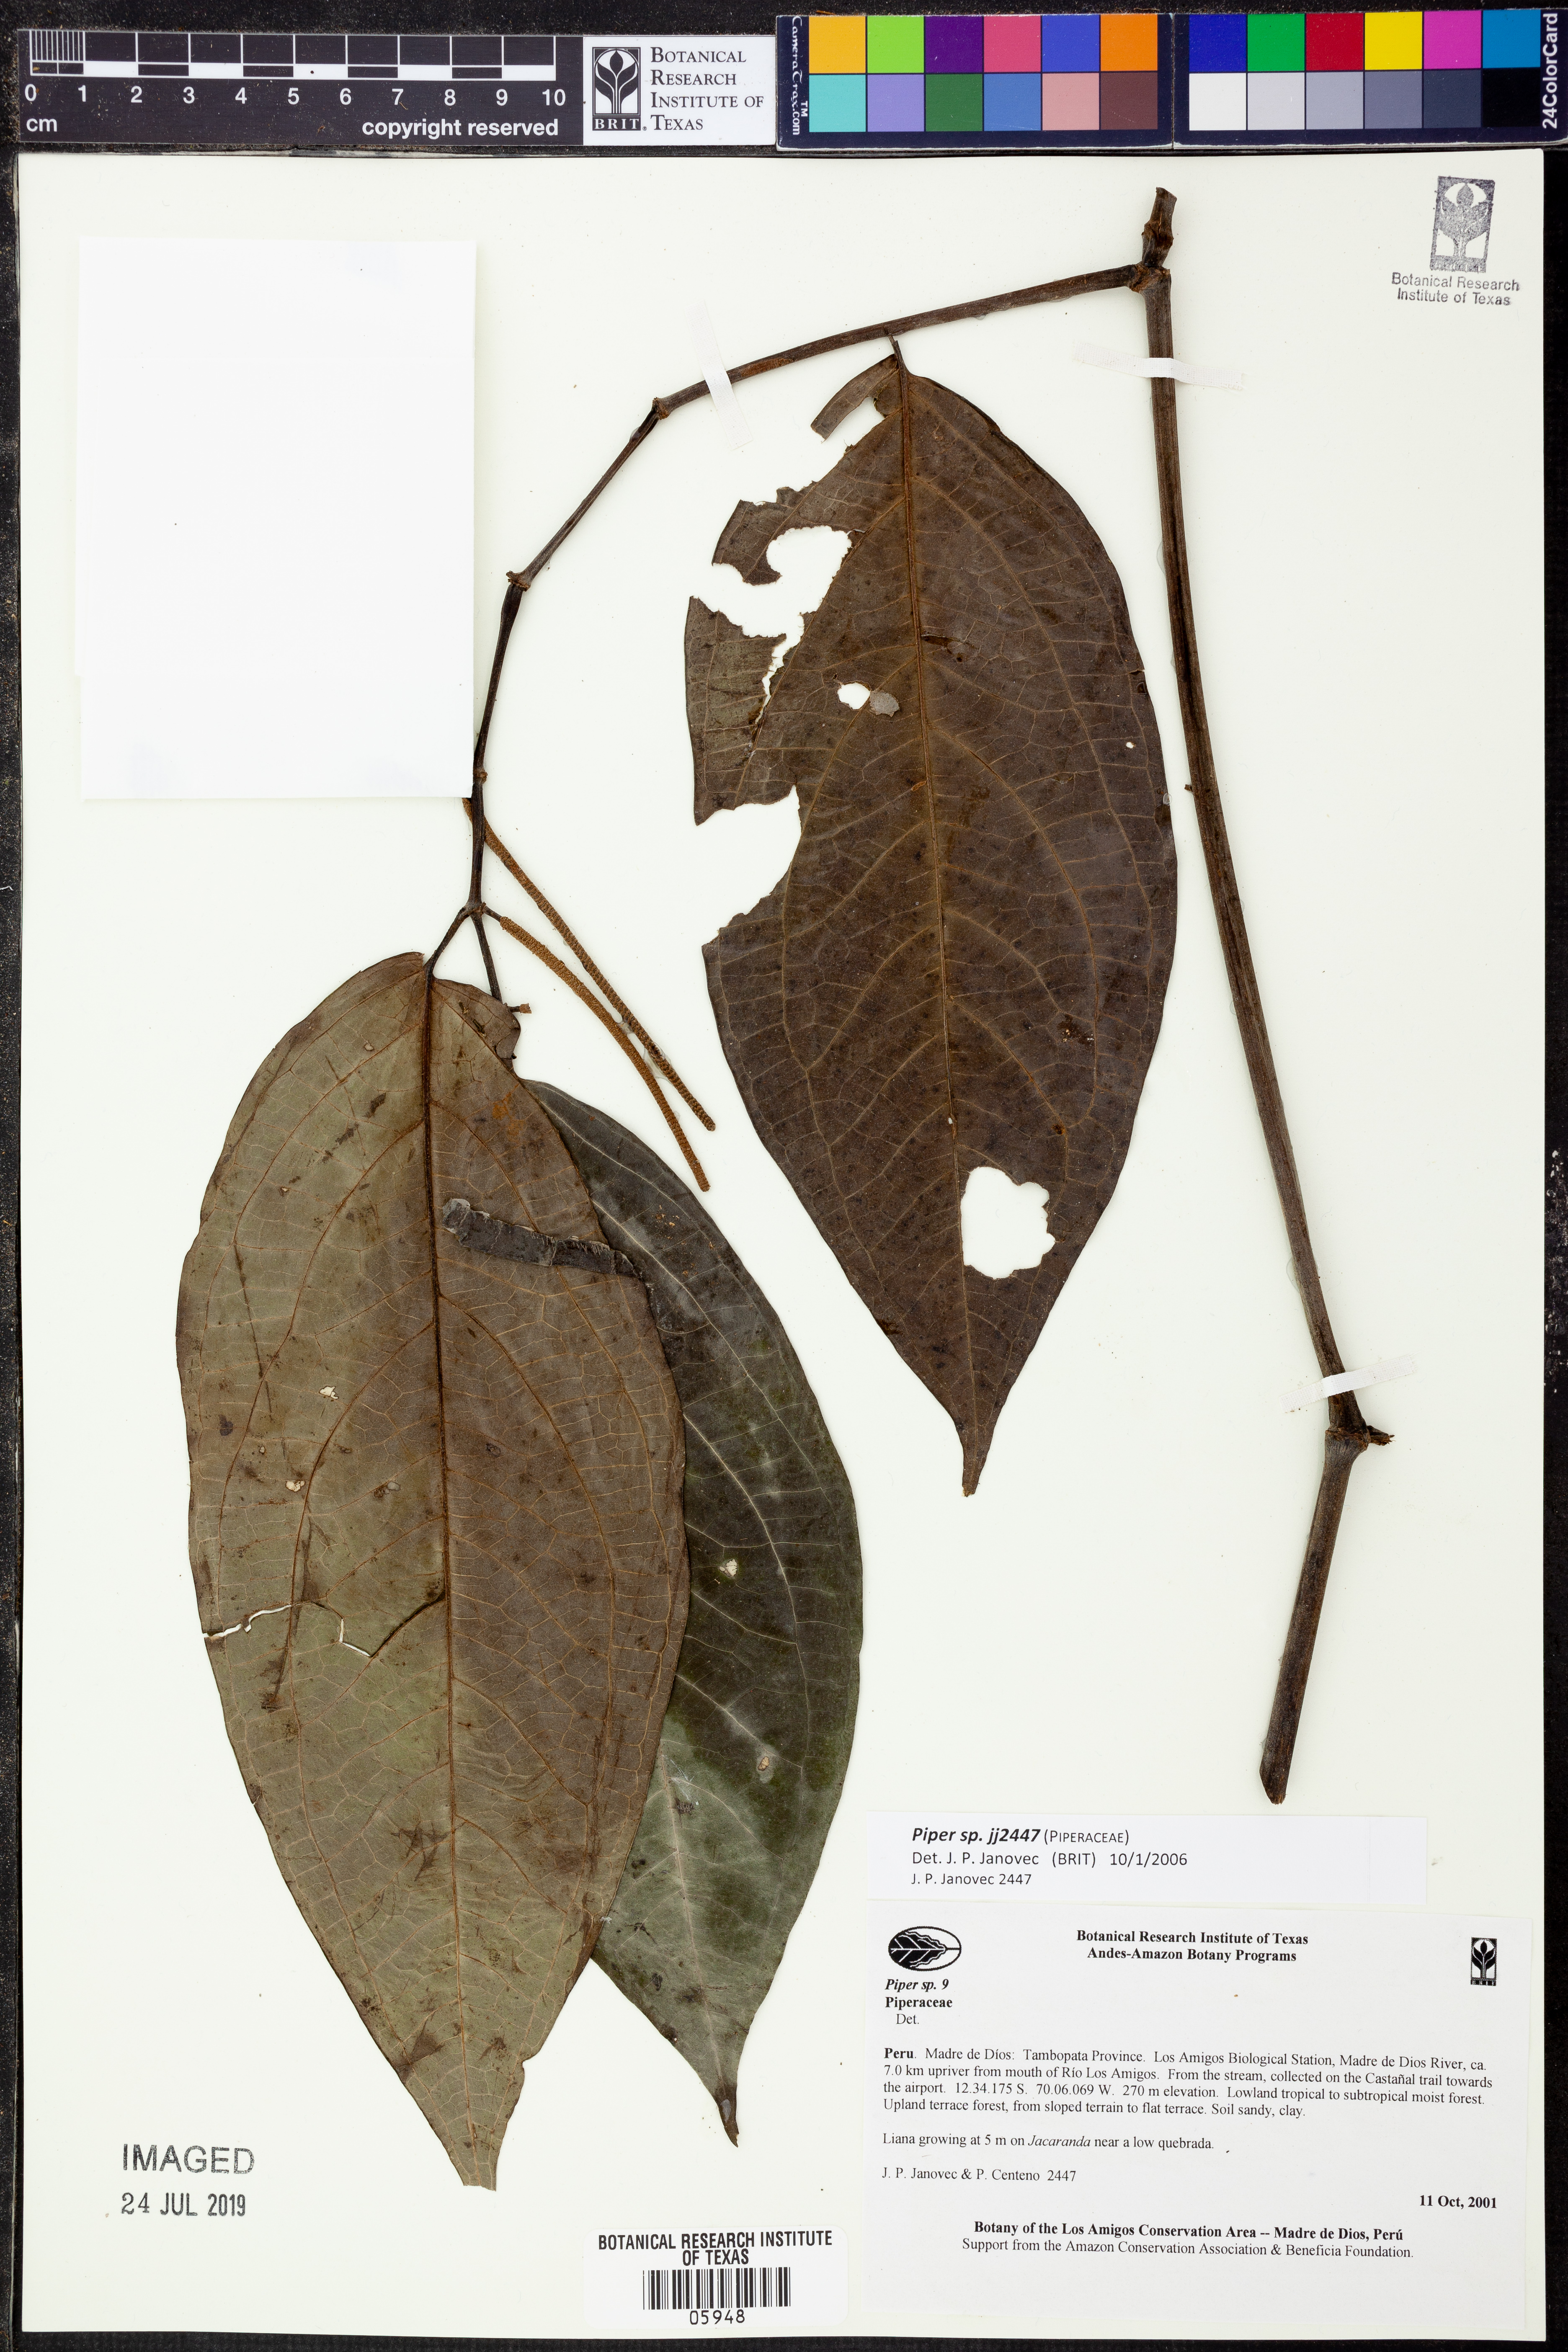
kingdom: Plantae
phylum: Tracheophyta
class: Magnoliopsida
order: Piperales
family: Piperaceae
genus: Piper
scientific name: Piper
